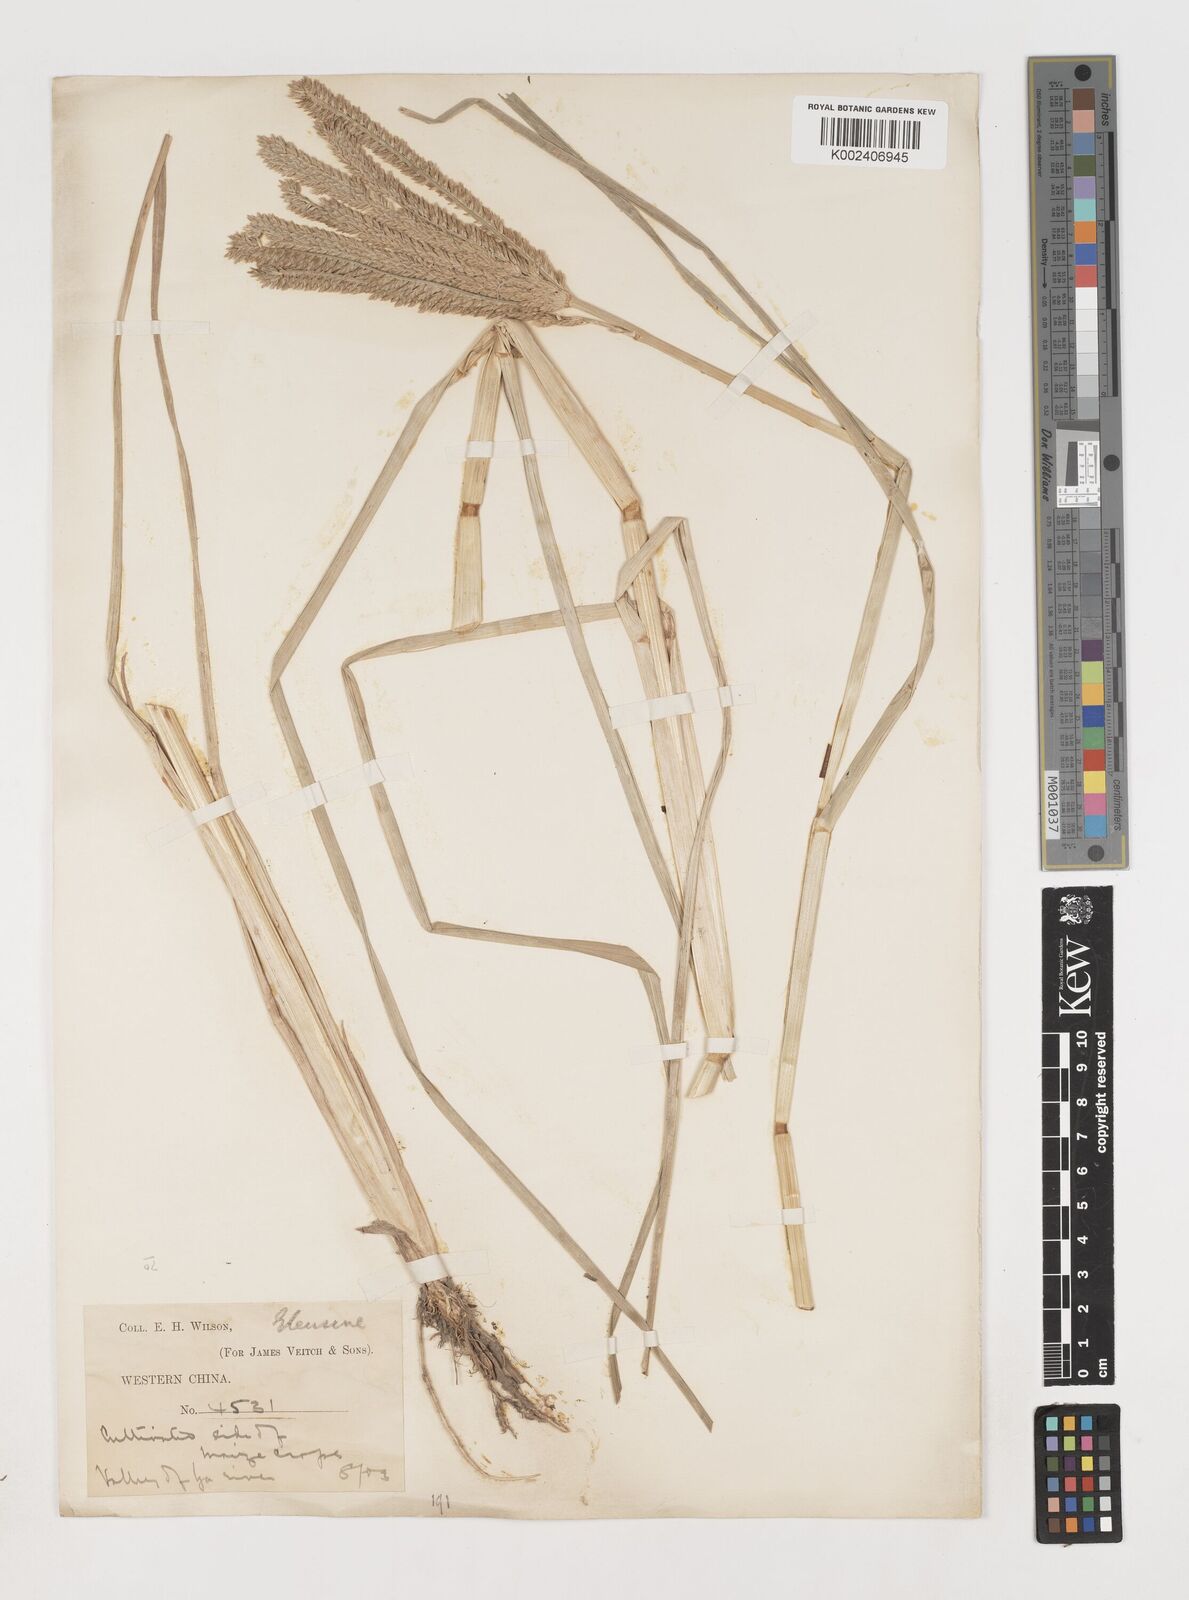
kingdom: Plantae
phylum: Tracheophyta
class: Liliopsida
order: Poales
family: Poaceae
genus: Eleusine
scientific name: Eleusine coracana
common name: Finger millet
